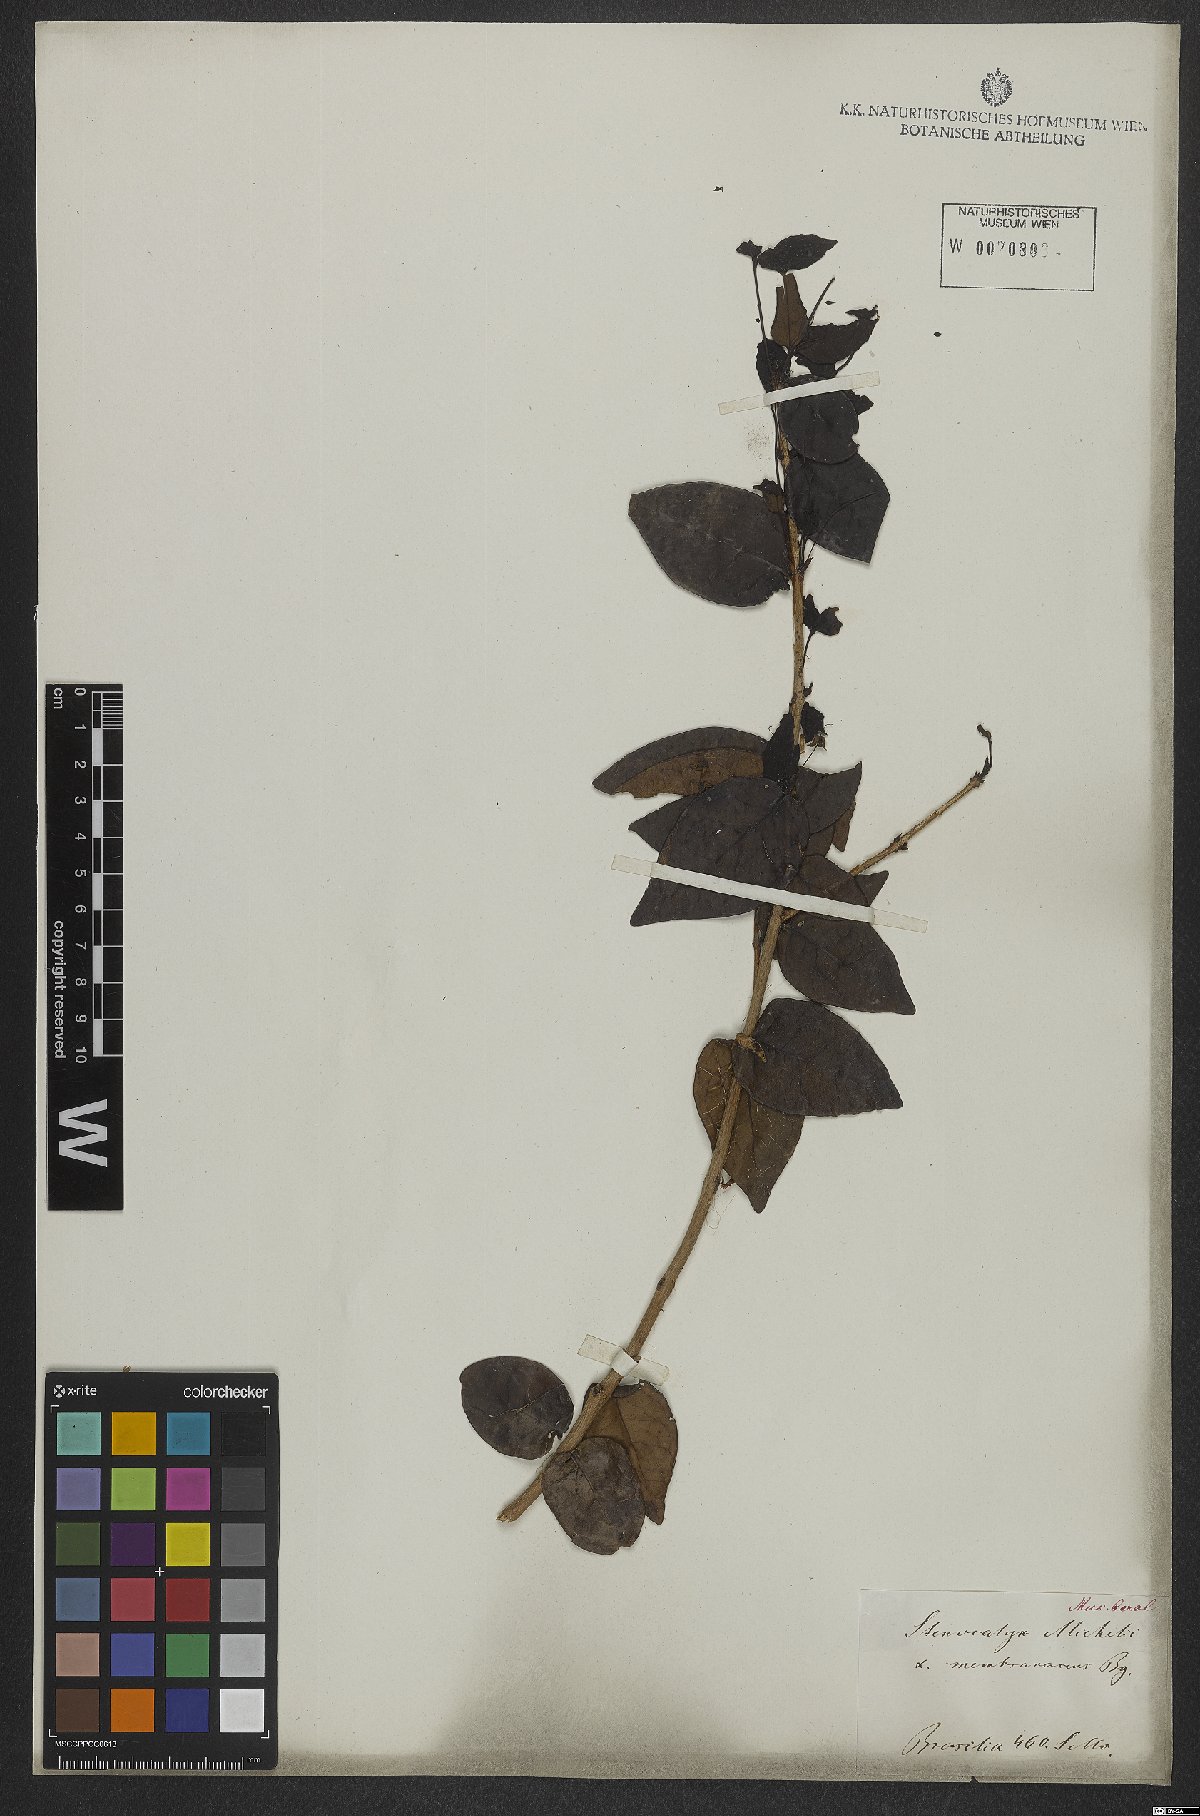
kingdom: Plantae
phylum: Tracheophyta
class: Magnoliopsida
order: Myrtales
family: Myrtaceae
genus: Eugenia
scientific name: Eugenia uniflora
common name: Surinam cherry
